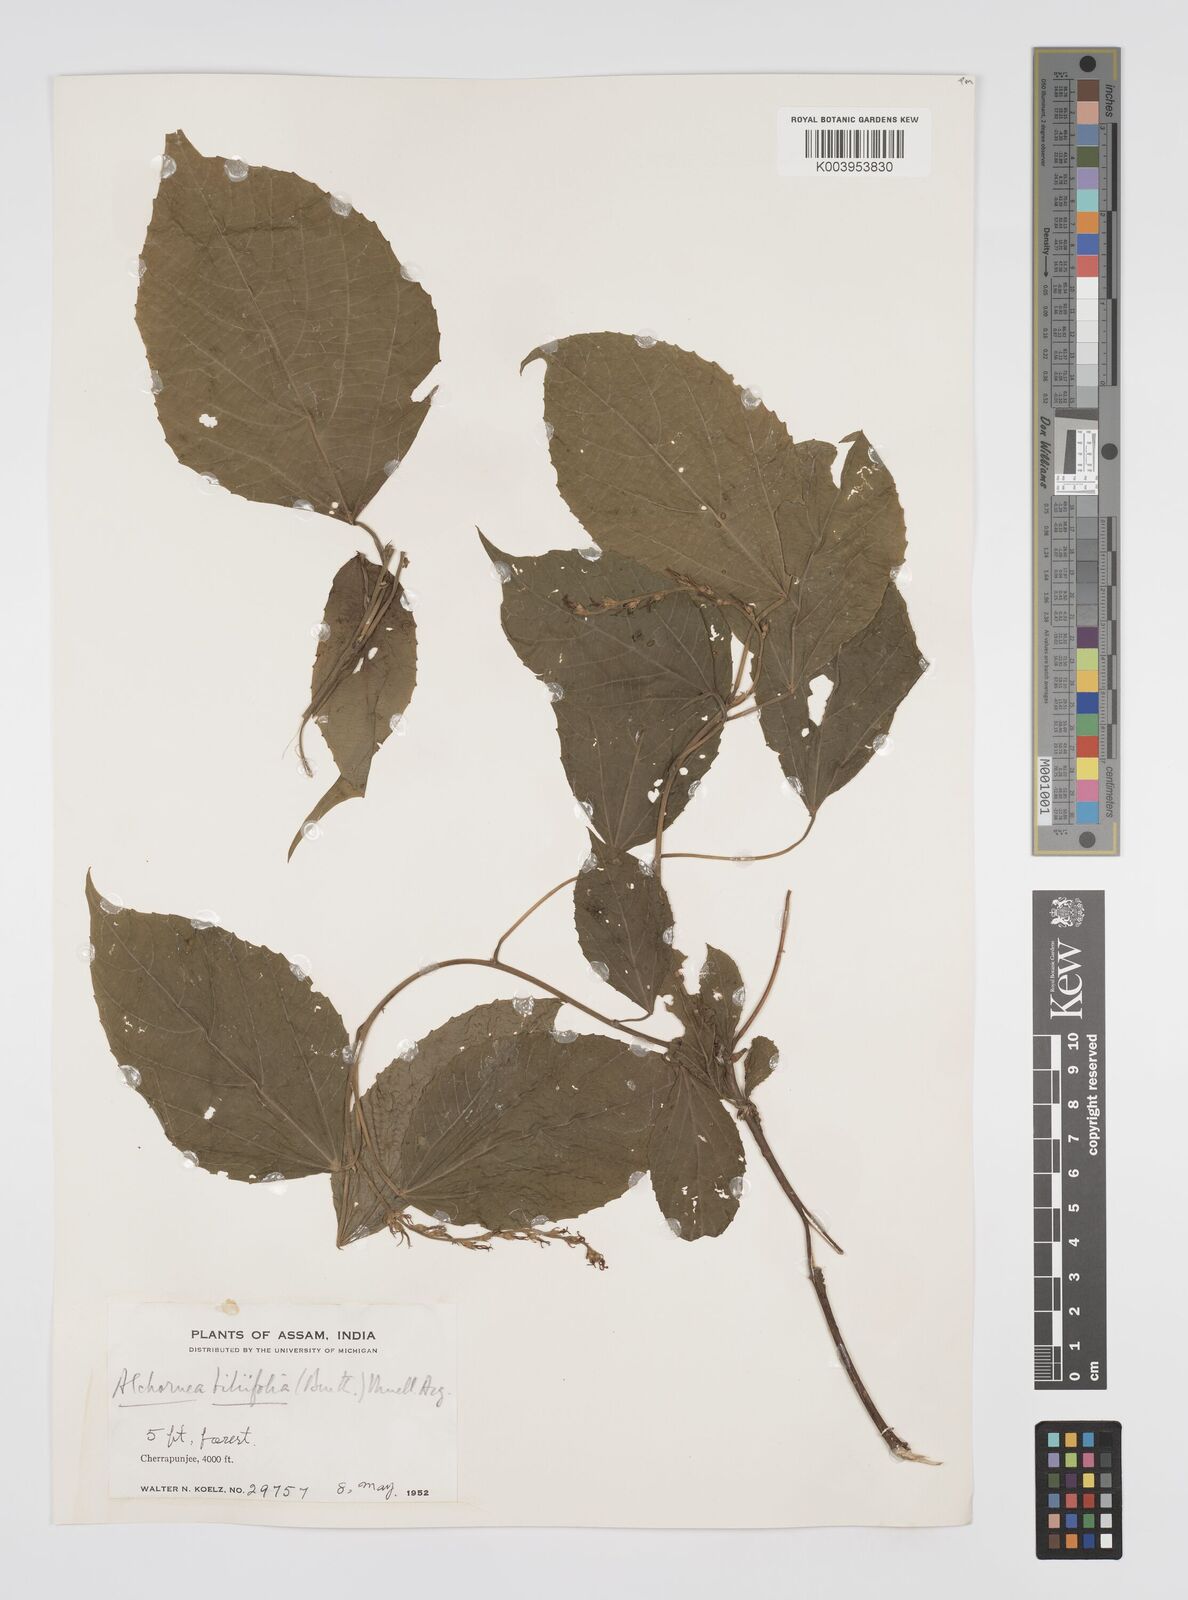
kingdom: Plantae
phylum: Tracheophyta
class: Magnoliopsida
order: Malpighiales
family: Euphorbiaceae
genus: Alchornea
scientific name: Alchornea tiliifolia
